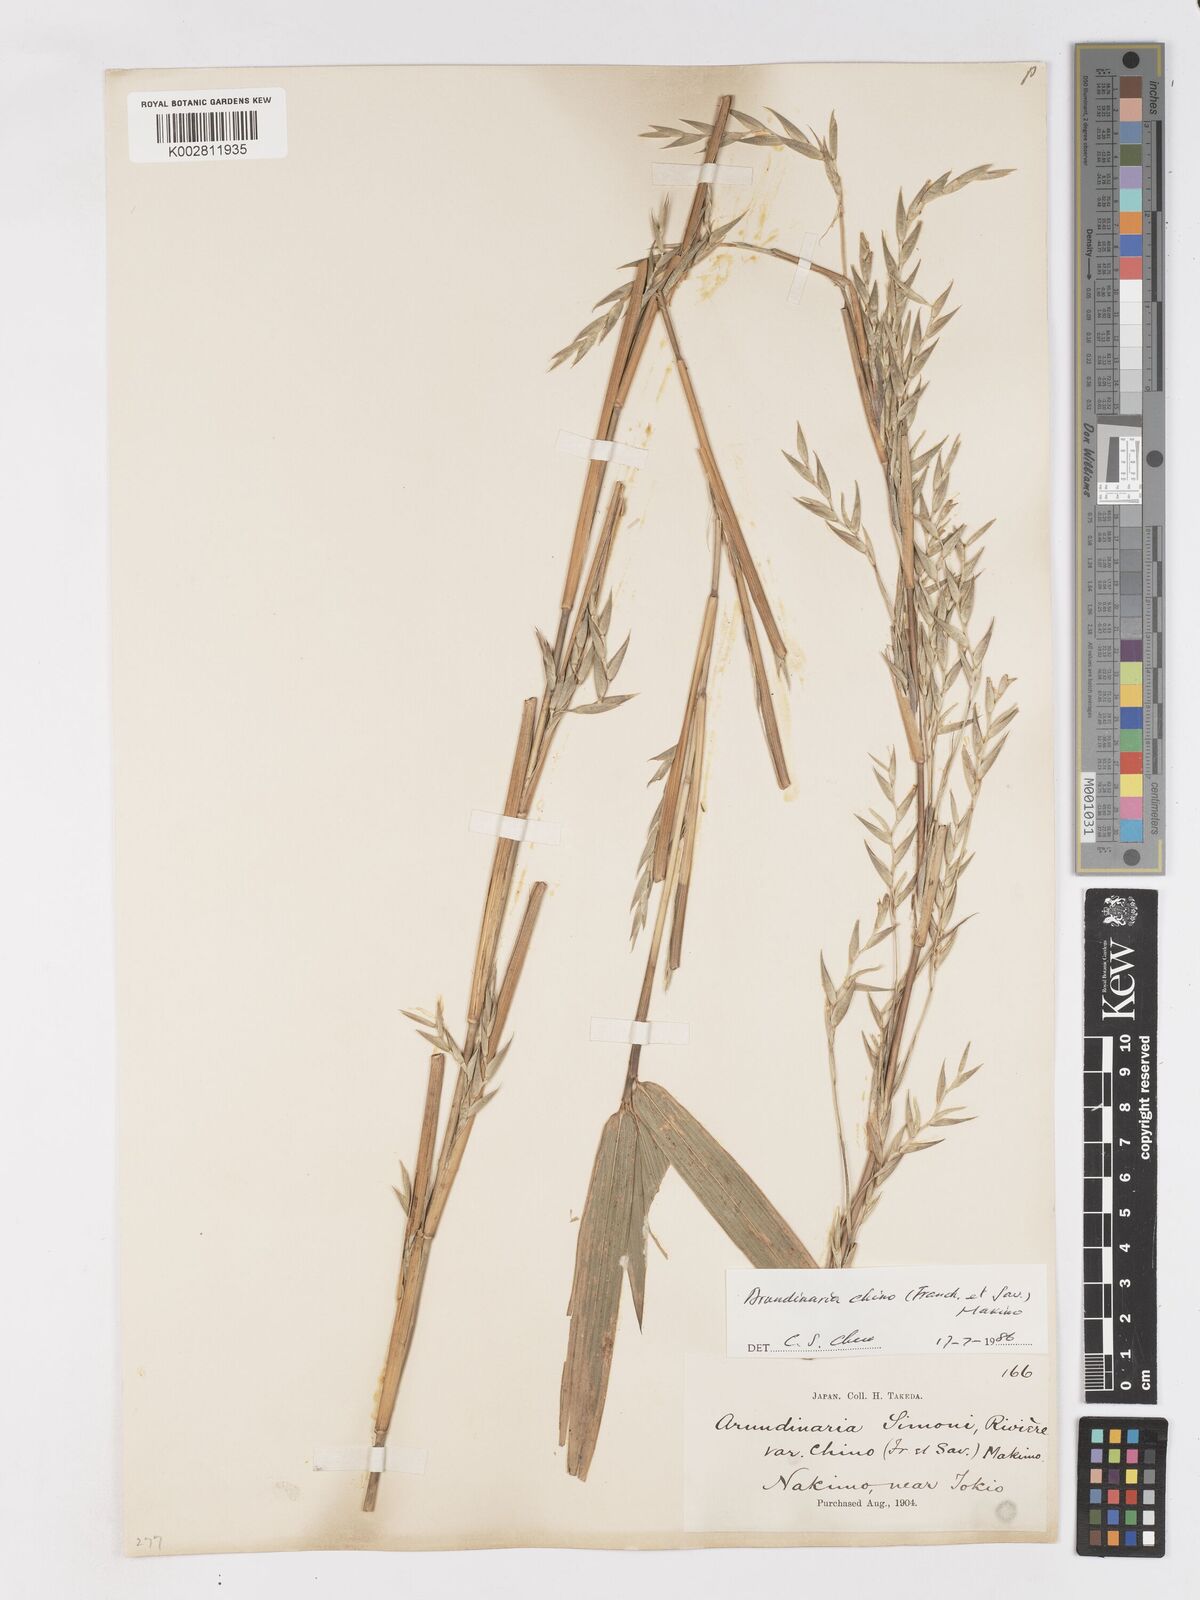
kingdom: Plantae
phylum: Tracheophyta
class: Liliopsida
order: Poales
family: Poaceae
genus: Pleioblastus
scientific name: Pleioblastus argenteostriatus
